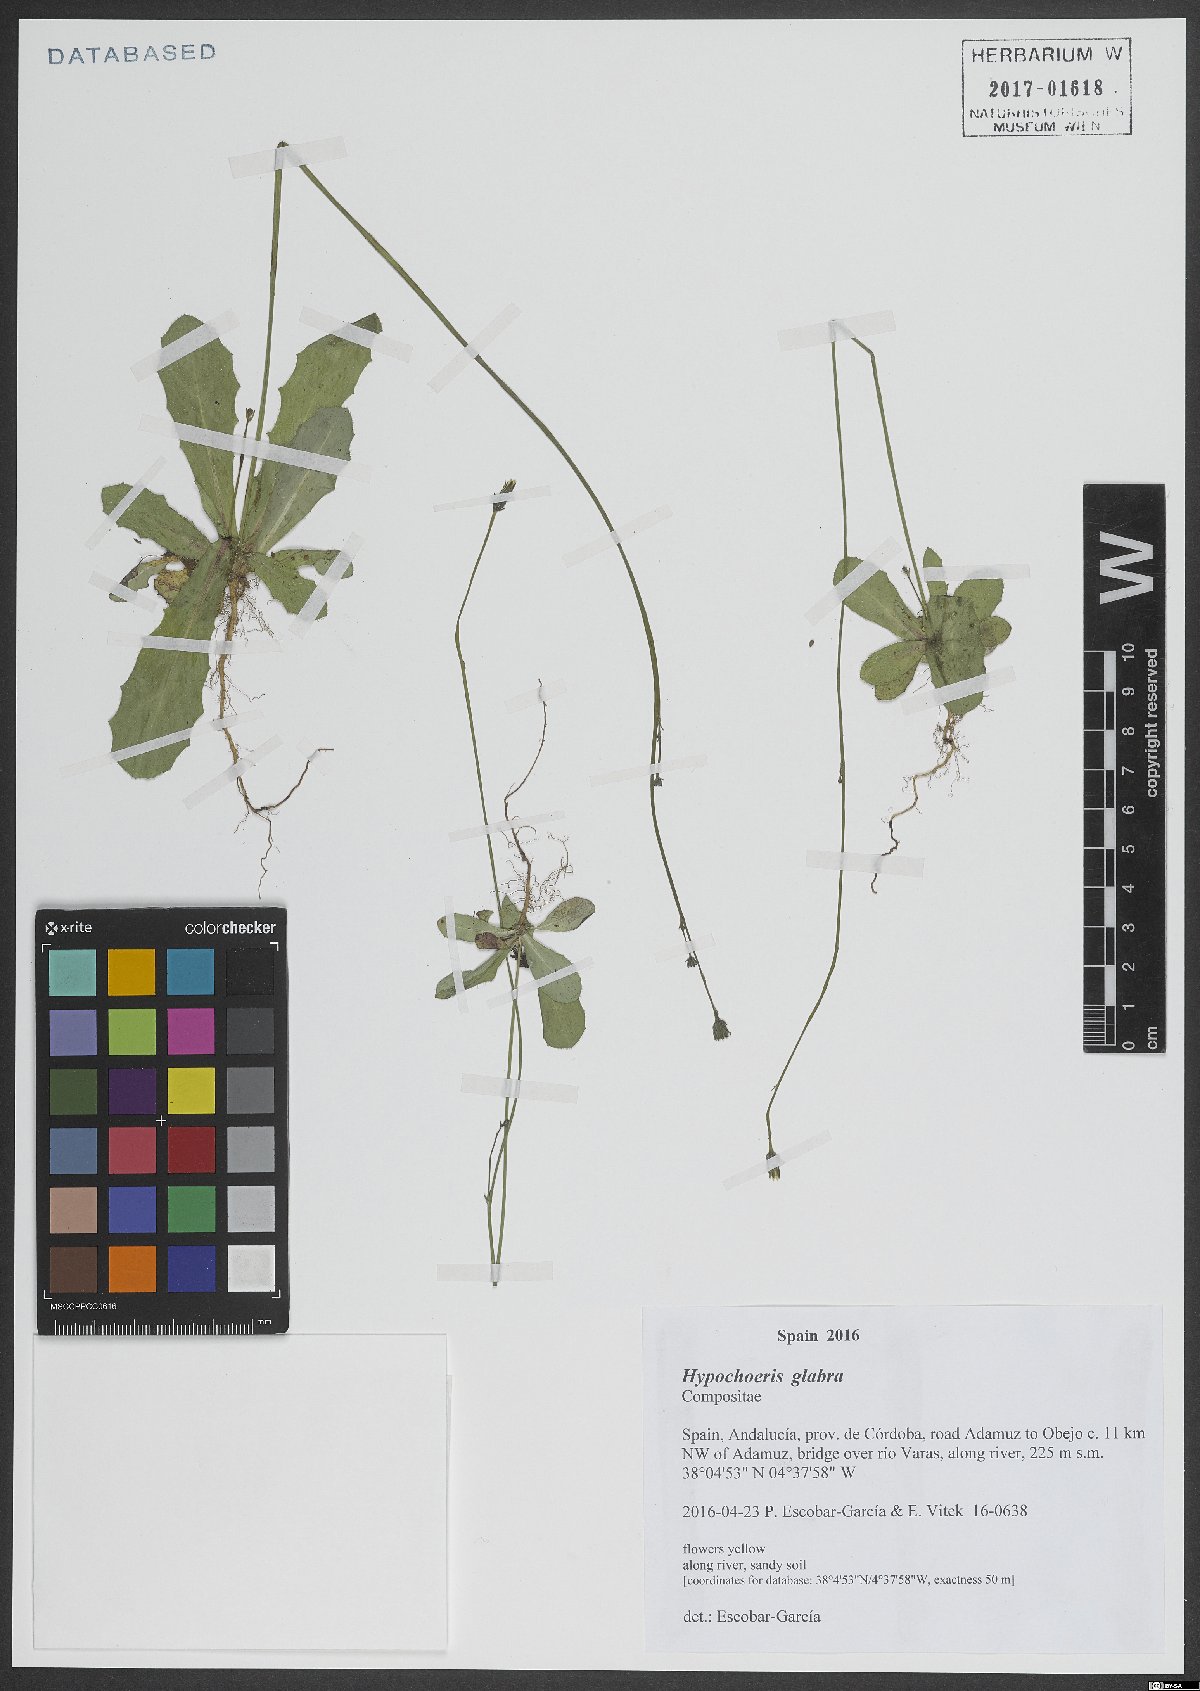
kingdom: Plantae
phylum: Tracheophyta
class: Magnoliopsida
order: Asterales
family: Asteraceae
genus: Hypochaeris
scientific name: Hypochaeris glabra
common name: Smooth catsear
